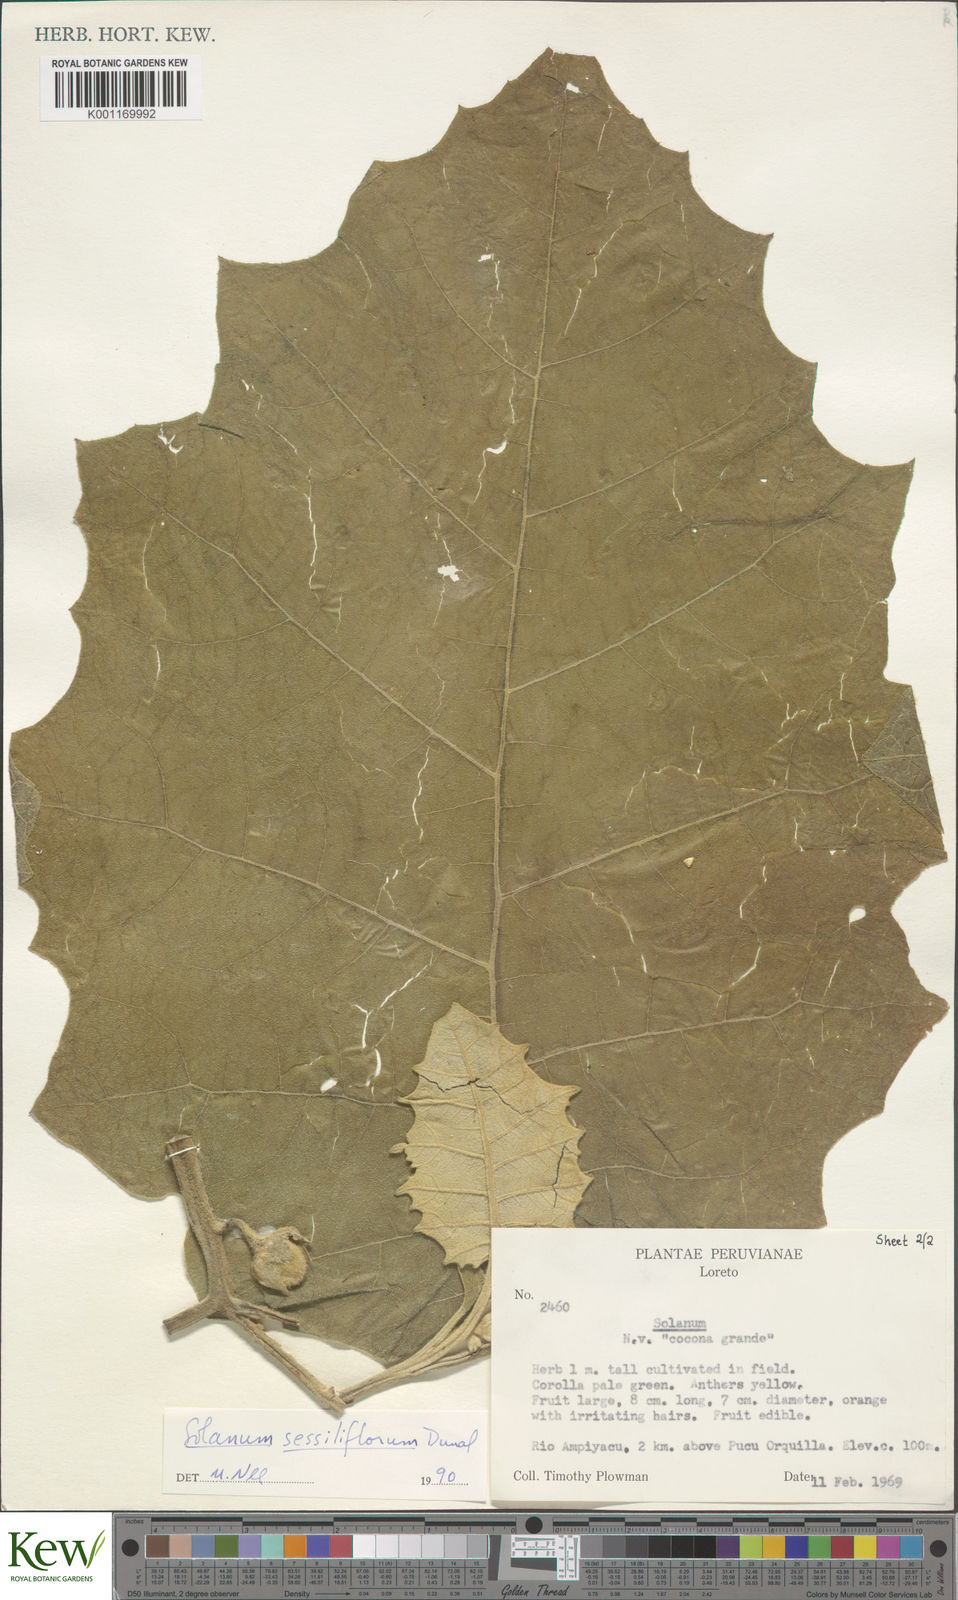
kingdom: Plantae
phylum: Tracheophyta
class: Magnoliopsida
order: Solanales
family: Solanaceae
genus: Solanum
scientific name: Solanum sessiliflorum
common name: Orinoco-apple
